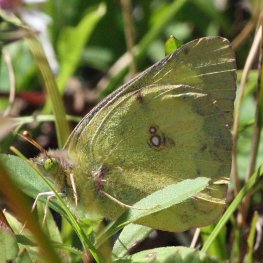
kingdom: Animalia
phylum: Arthropoda
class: Insecta
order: Lepidoptera
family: Pieridae
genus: Colias
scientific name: Colias philodice
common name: Clouded Sulphur
